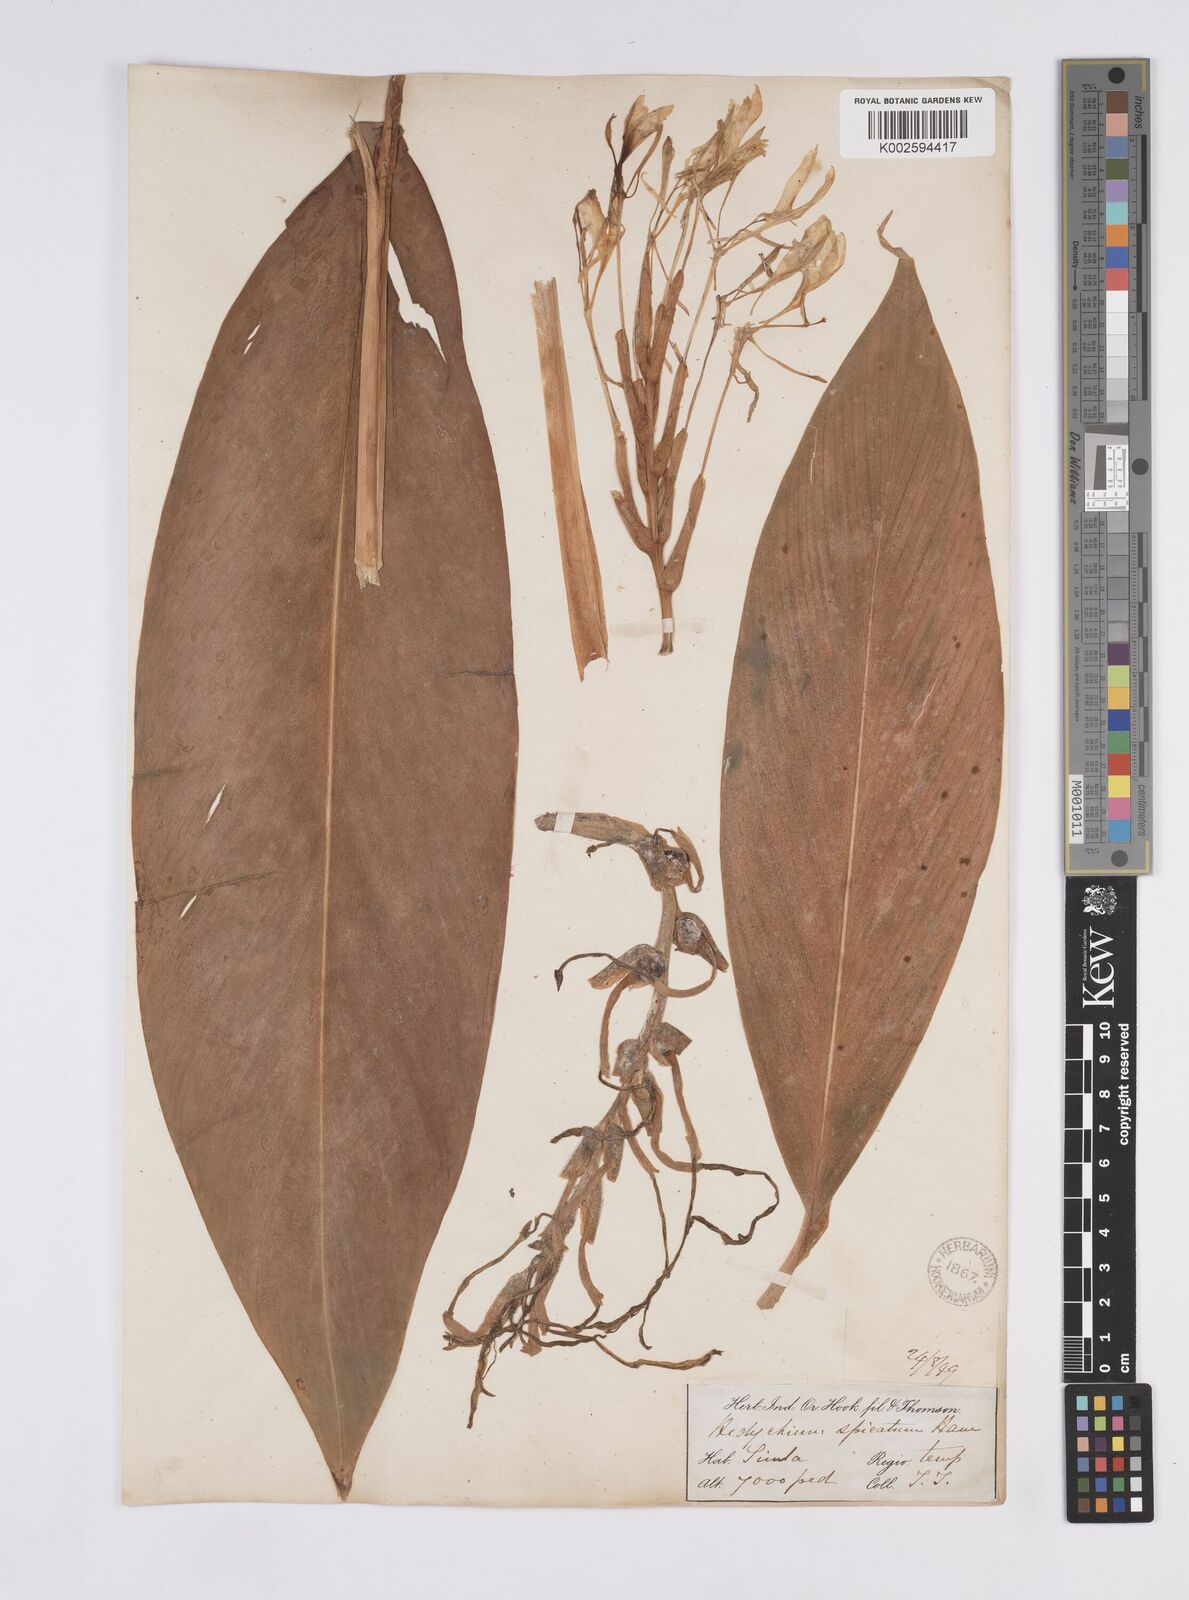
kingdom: Plantae
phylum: Tracheophyta
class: Liliopsida
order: Zingiberales
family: Zingiberaceae
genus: Hedychium
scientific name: Hedychium spicatum
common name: Spiked ginger-lily
